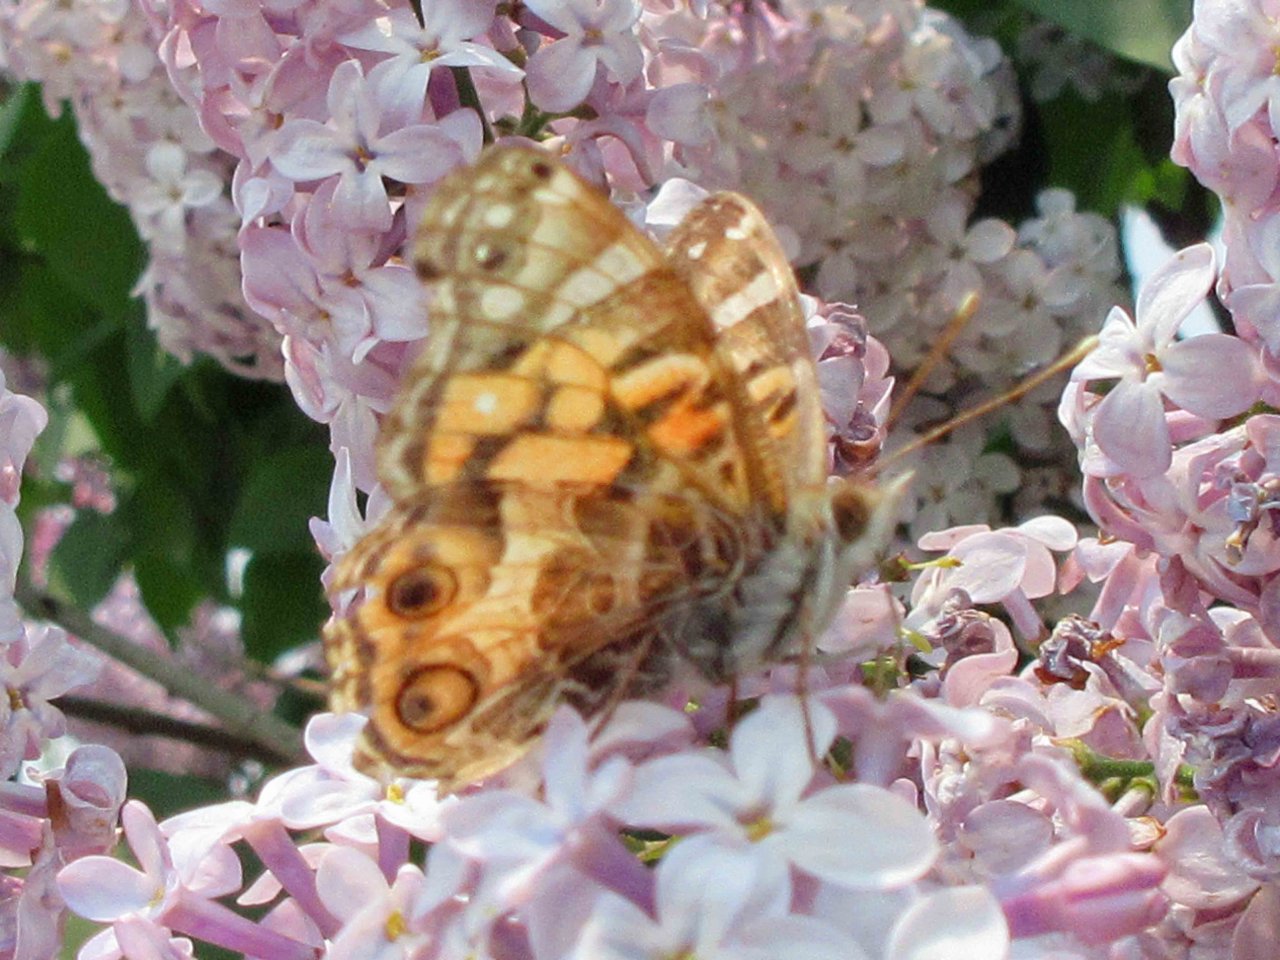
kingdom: Animalia
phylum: Arthropoda
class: Insecta
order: Lepidoptera
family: Nymphalidae
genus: Vanessa
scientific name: Vanessa virginiensis
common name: American Lady
